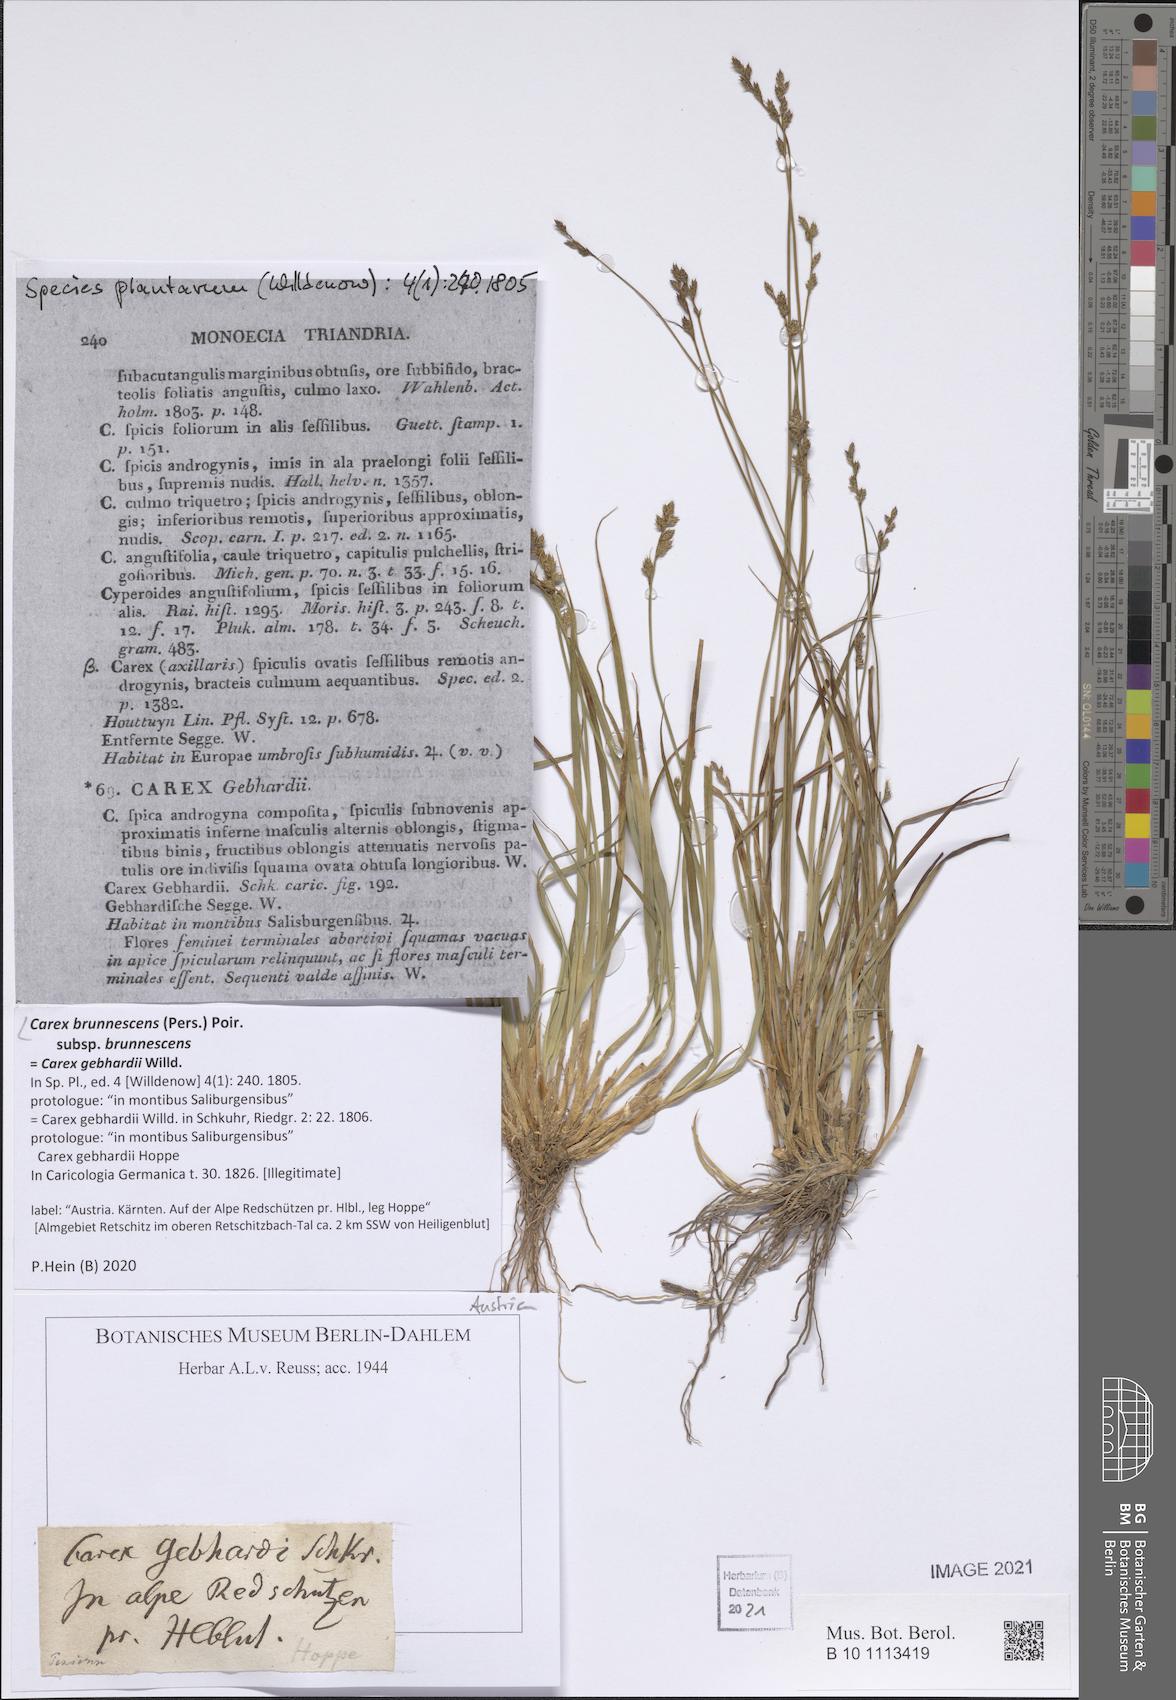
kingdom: Plantae
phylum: Tracheophyta
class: Liliopsida
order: Poales
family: Cyperaceae
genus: Carex
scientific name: Carex brunnescens
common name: Brown sedge
